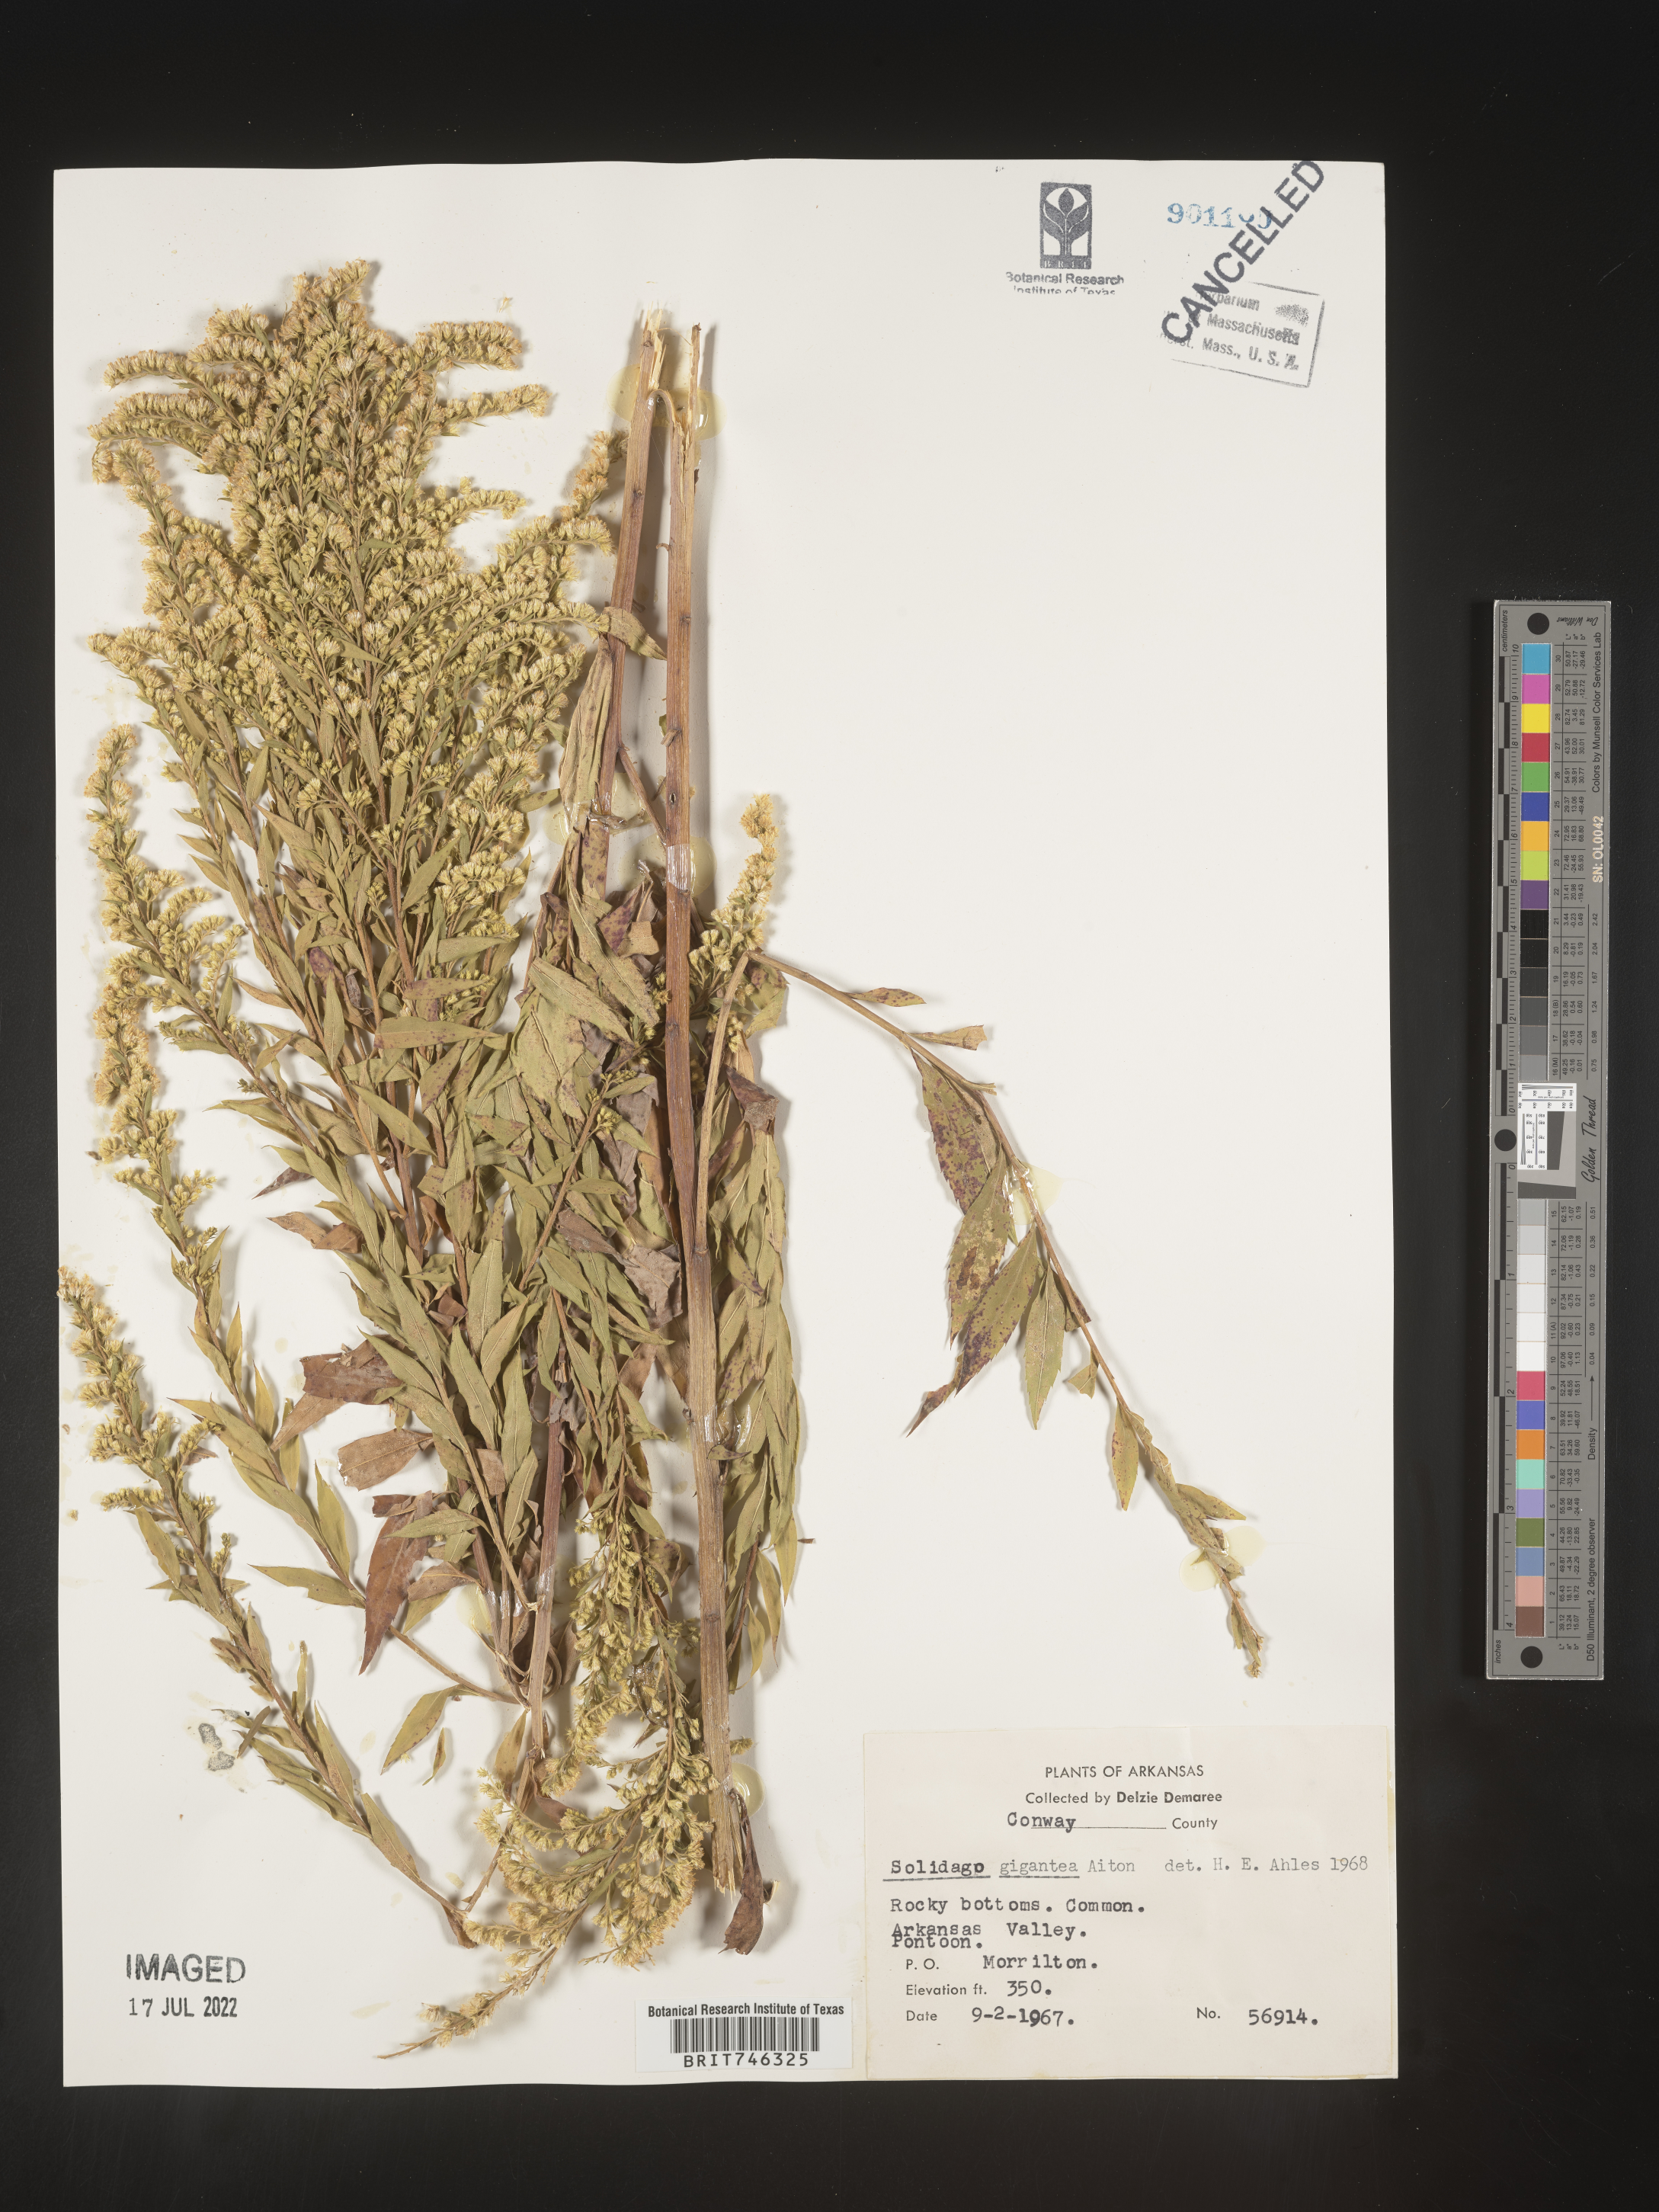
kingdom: Plantae
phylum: Tracheophyta
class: Magnoliopsida
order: Asterales
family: Asteraceae
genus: Solidago
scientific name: Solidago gigantea
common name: Giant goldenrod
